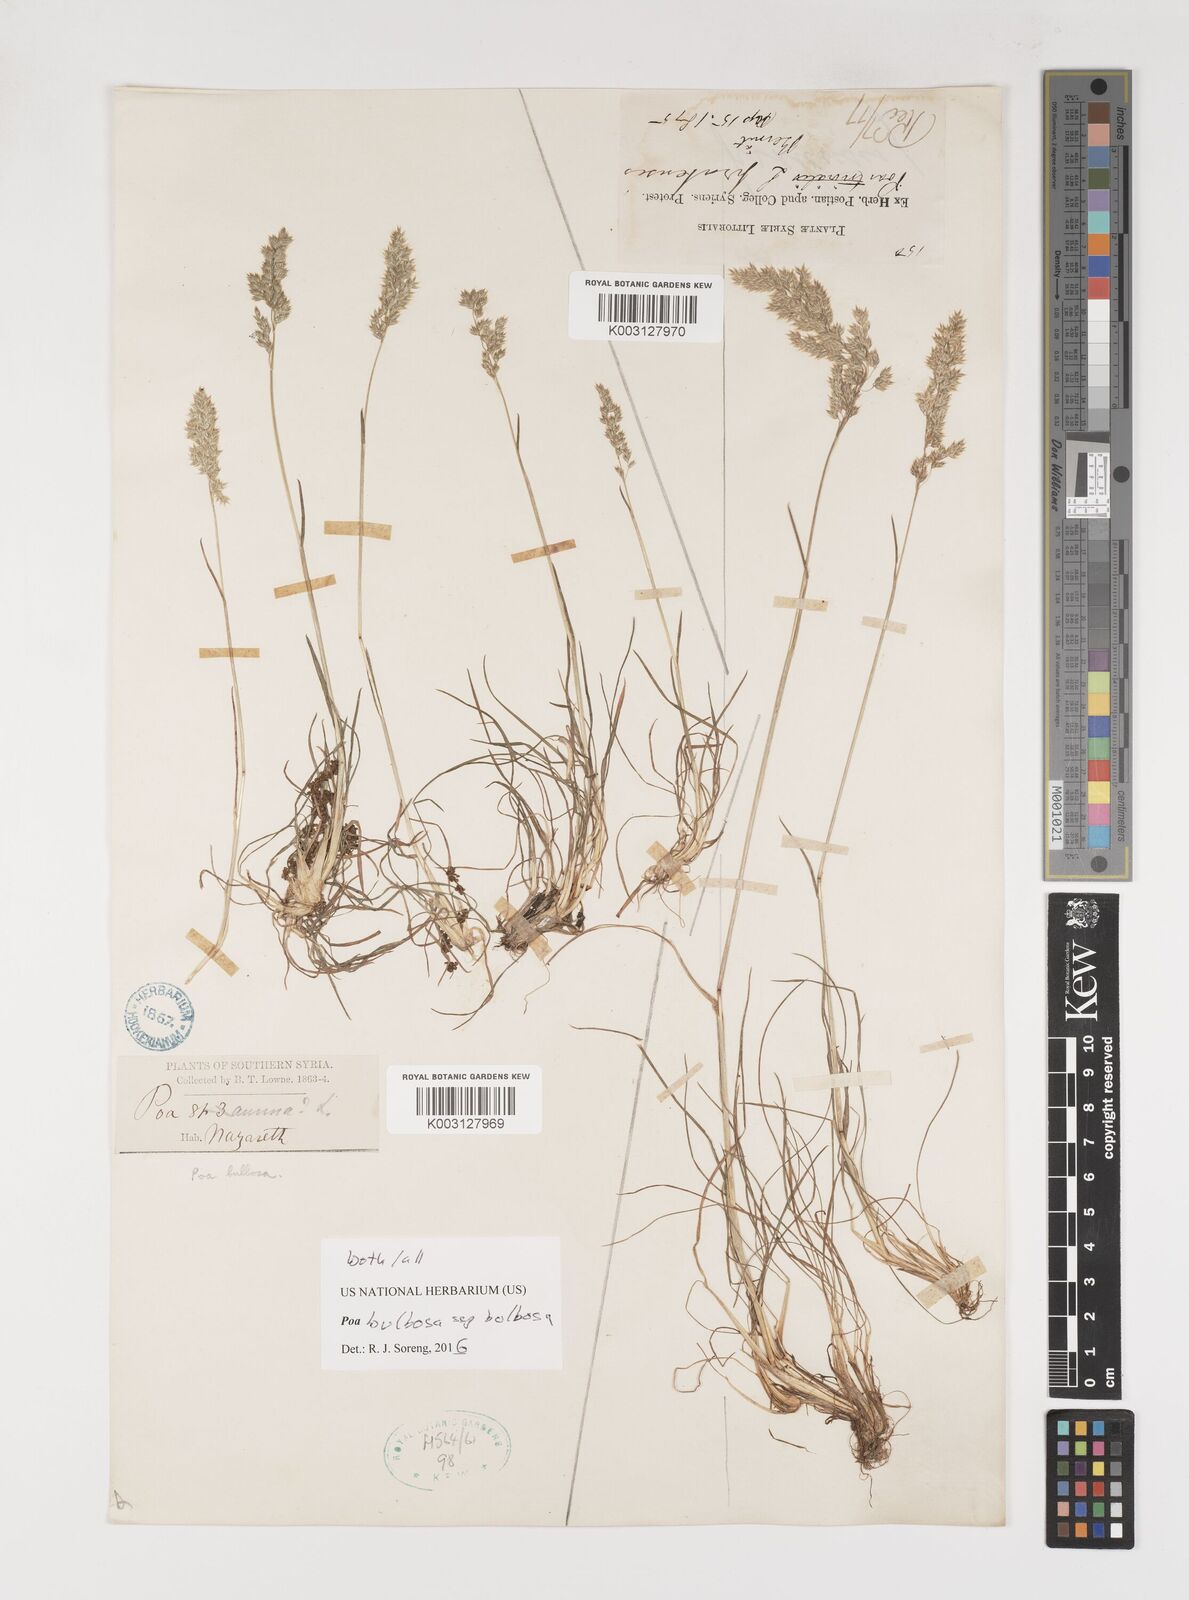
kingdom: Plantae
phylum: Tracheophyta
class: Liliopsida
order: Poales
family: Poaceae
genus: Poa
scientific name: Poa bulbosa
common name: Bulbous bluegrass
